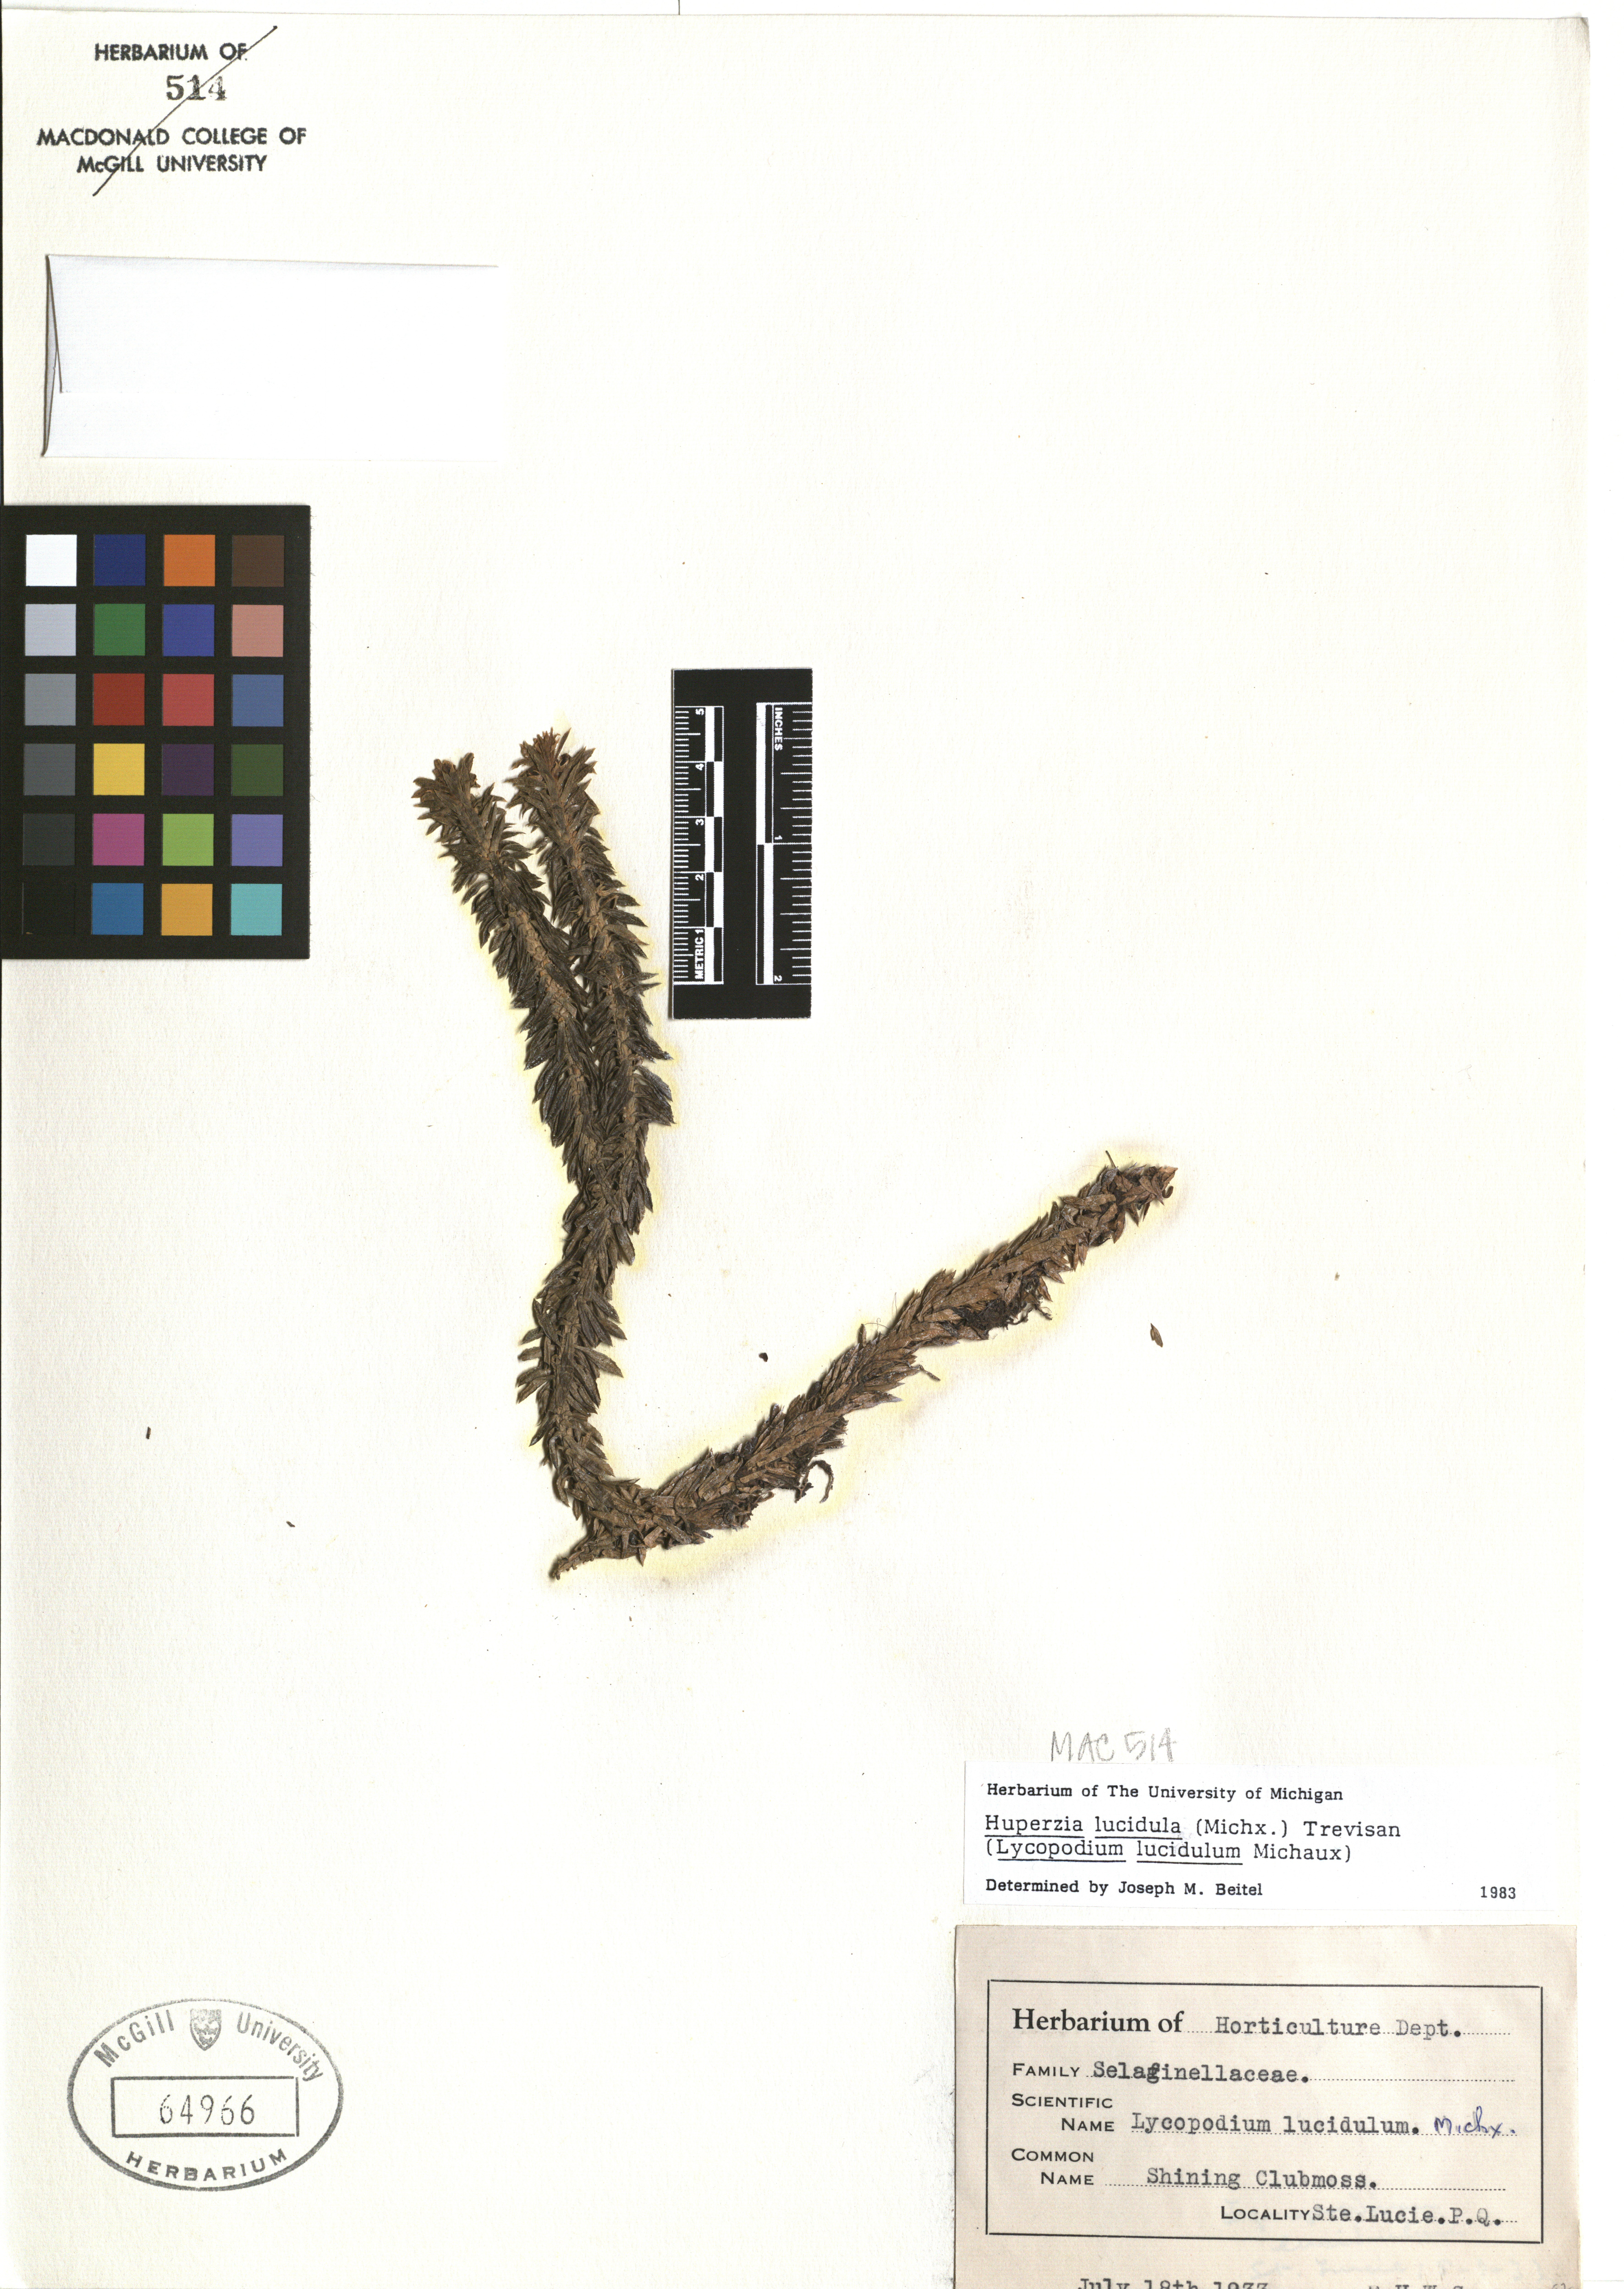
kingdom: Plantae
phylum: Tracheophyta
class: Lycopodiopsida
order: Lycopodiales
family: Lycopodiaceae
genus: Huperzia
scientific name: Huperzia lucidula
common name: Shining clubmoss
